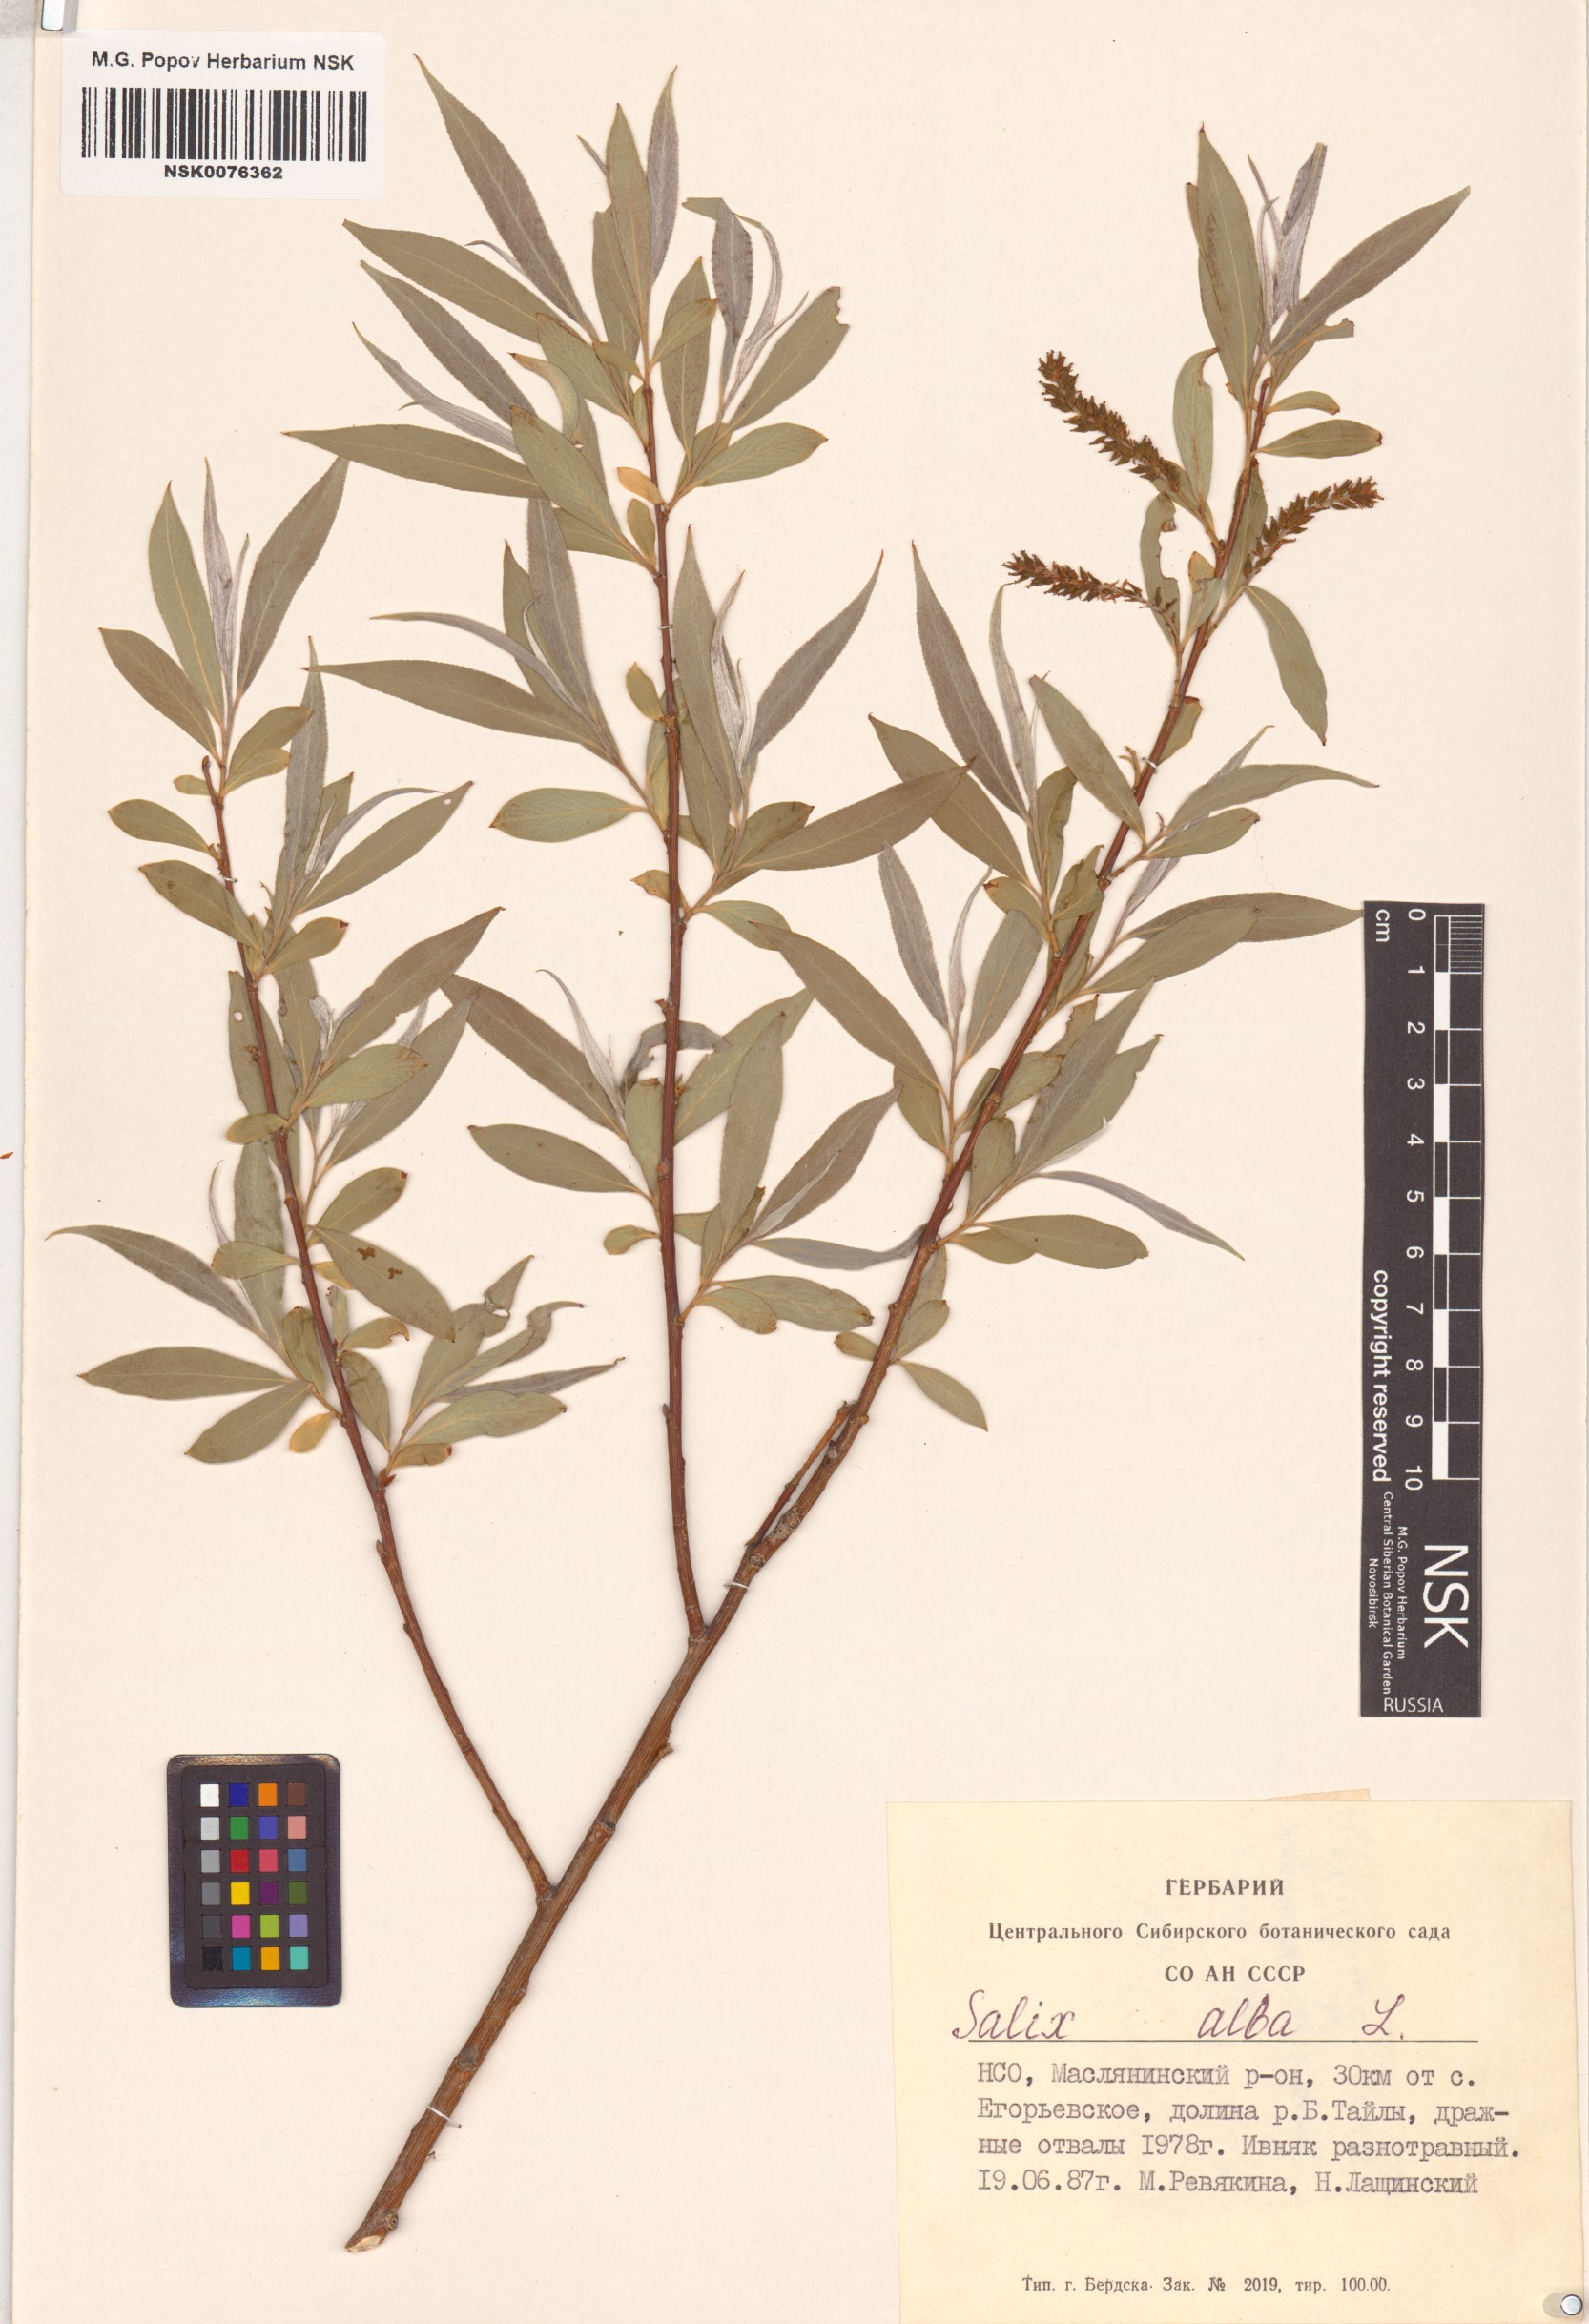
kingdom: Plantae
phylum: Tracheophyta
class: Magnoliopsida
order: Malpighiales
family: Salicaceae
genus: Salix
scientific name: Salix alba
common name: White willow
